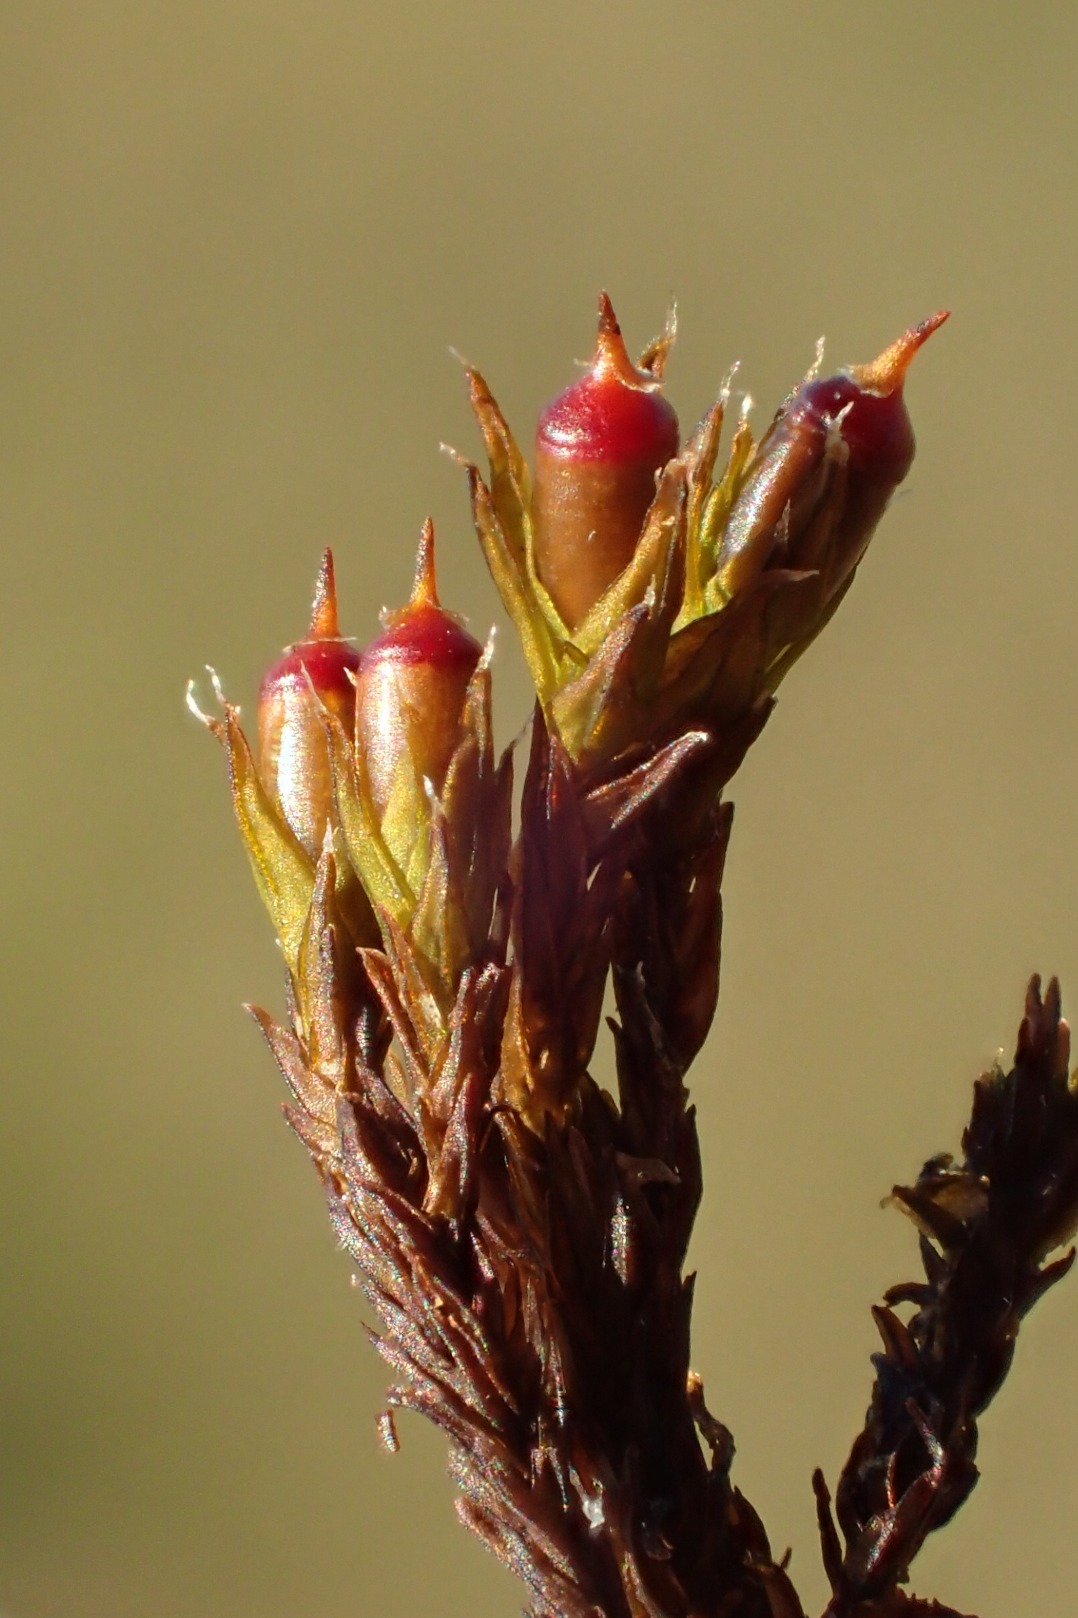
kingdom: Plantae
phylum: Bryophyta
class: Bryopsida
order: Grimmiales
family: Grimmiaceae
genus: Schistidium
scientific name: Schistidium
